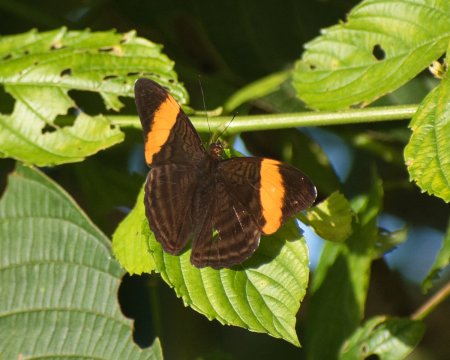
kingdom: Animalia
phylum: Arthropoda
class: Insecta
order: Lepidoptera
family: Nymphalidae
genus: Limenitis
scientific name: Limenitis salmoneus
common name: Golden-banded Sister
